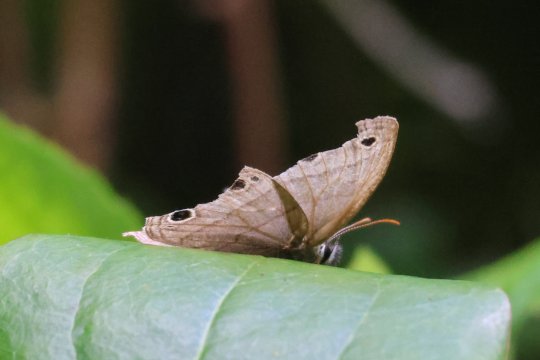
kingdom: Animalia
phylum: Arthropoda
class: Insecta
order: Lepidoptera
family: Nymphalidae
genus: Euptychia
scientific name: Euptychia cymela
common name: Little Wood Satyr
